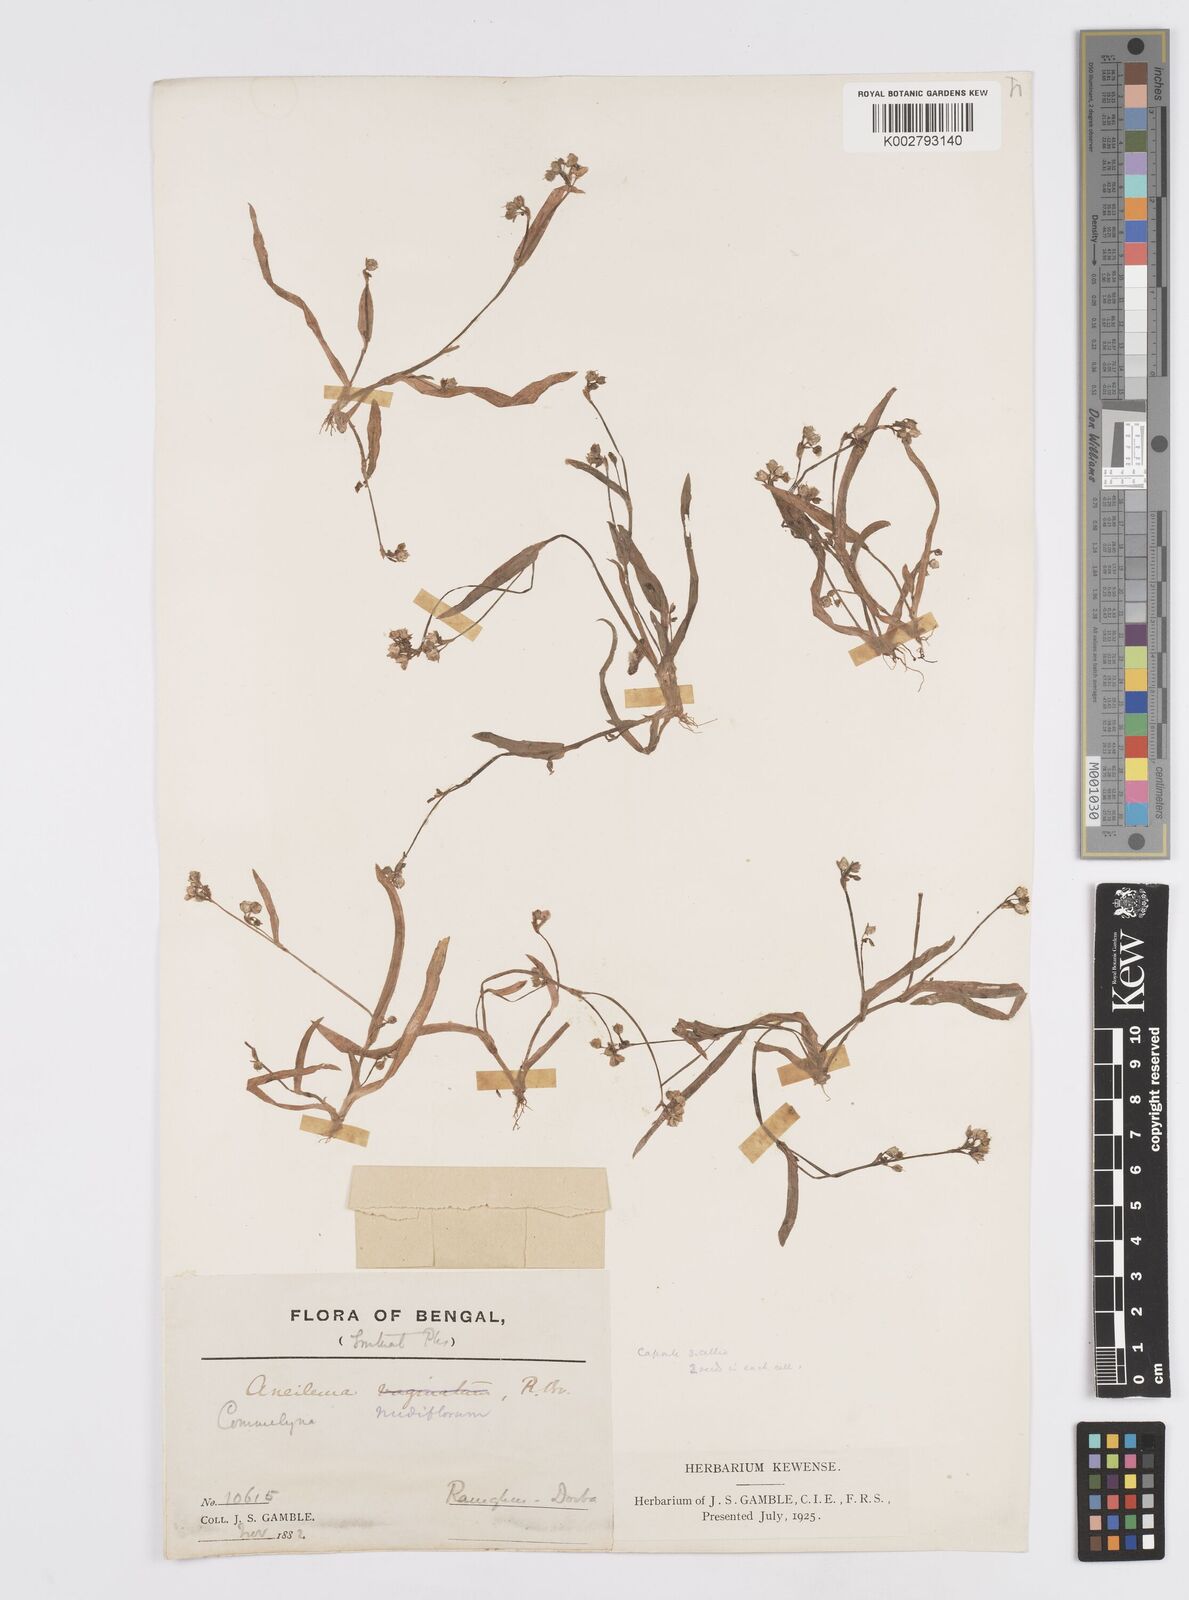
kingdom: Plantae
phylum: Tracheophyta
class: Liliopsida
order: Commelinales
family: Commelinaceae
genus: Murdannia
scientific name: Murdannia nudiflora
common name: Nakedstem dewflower
